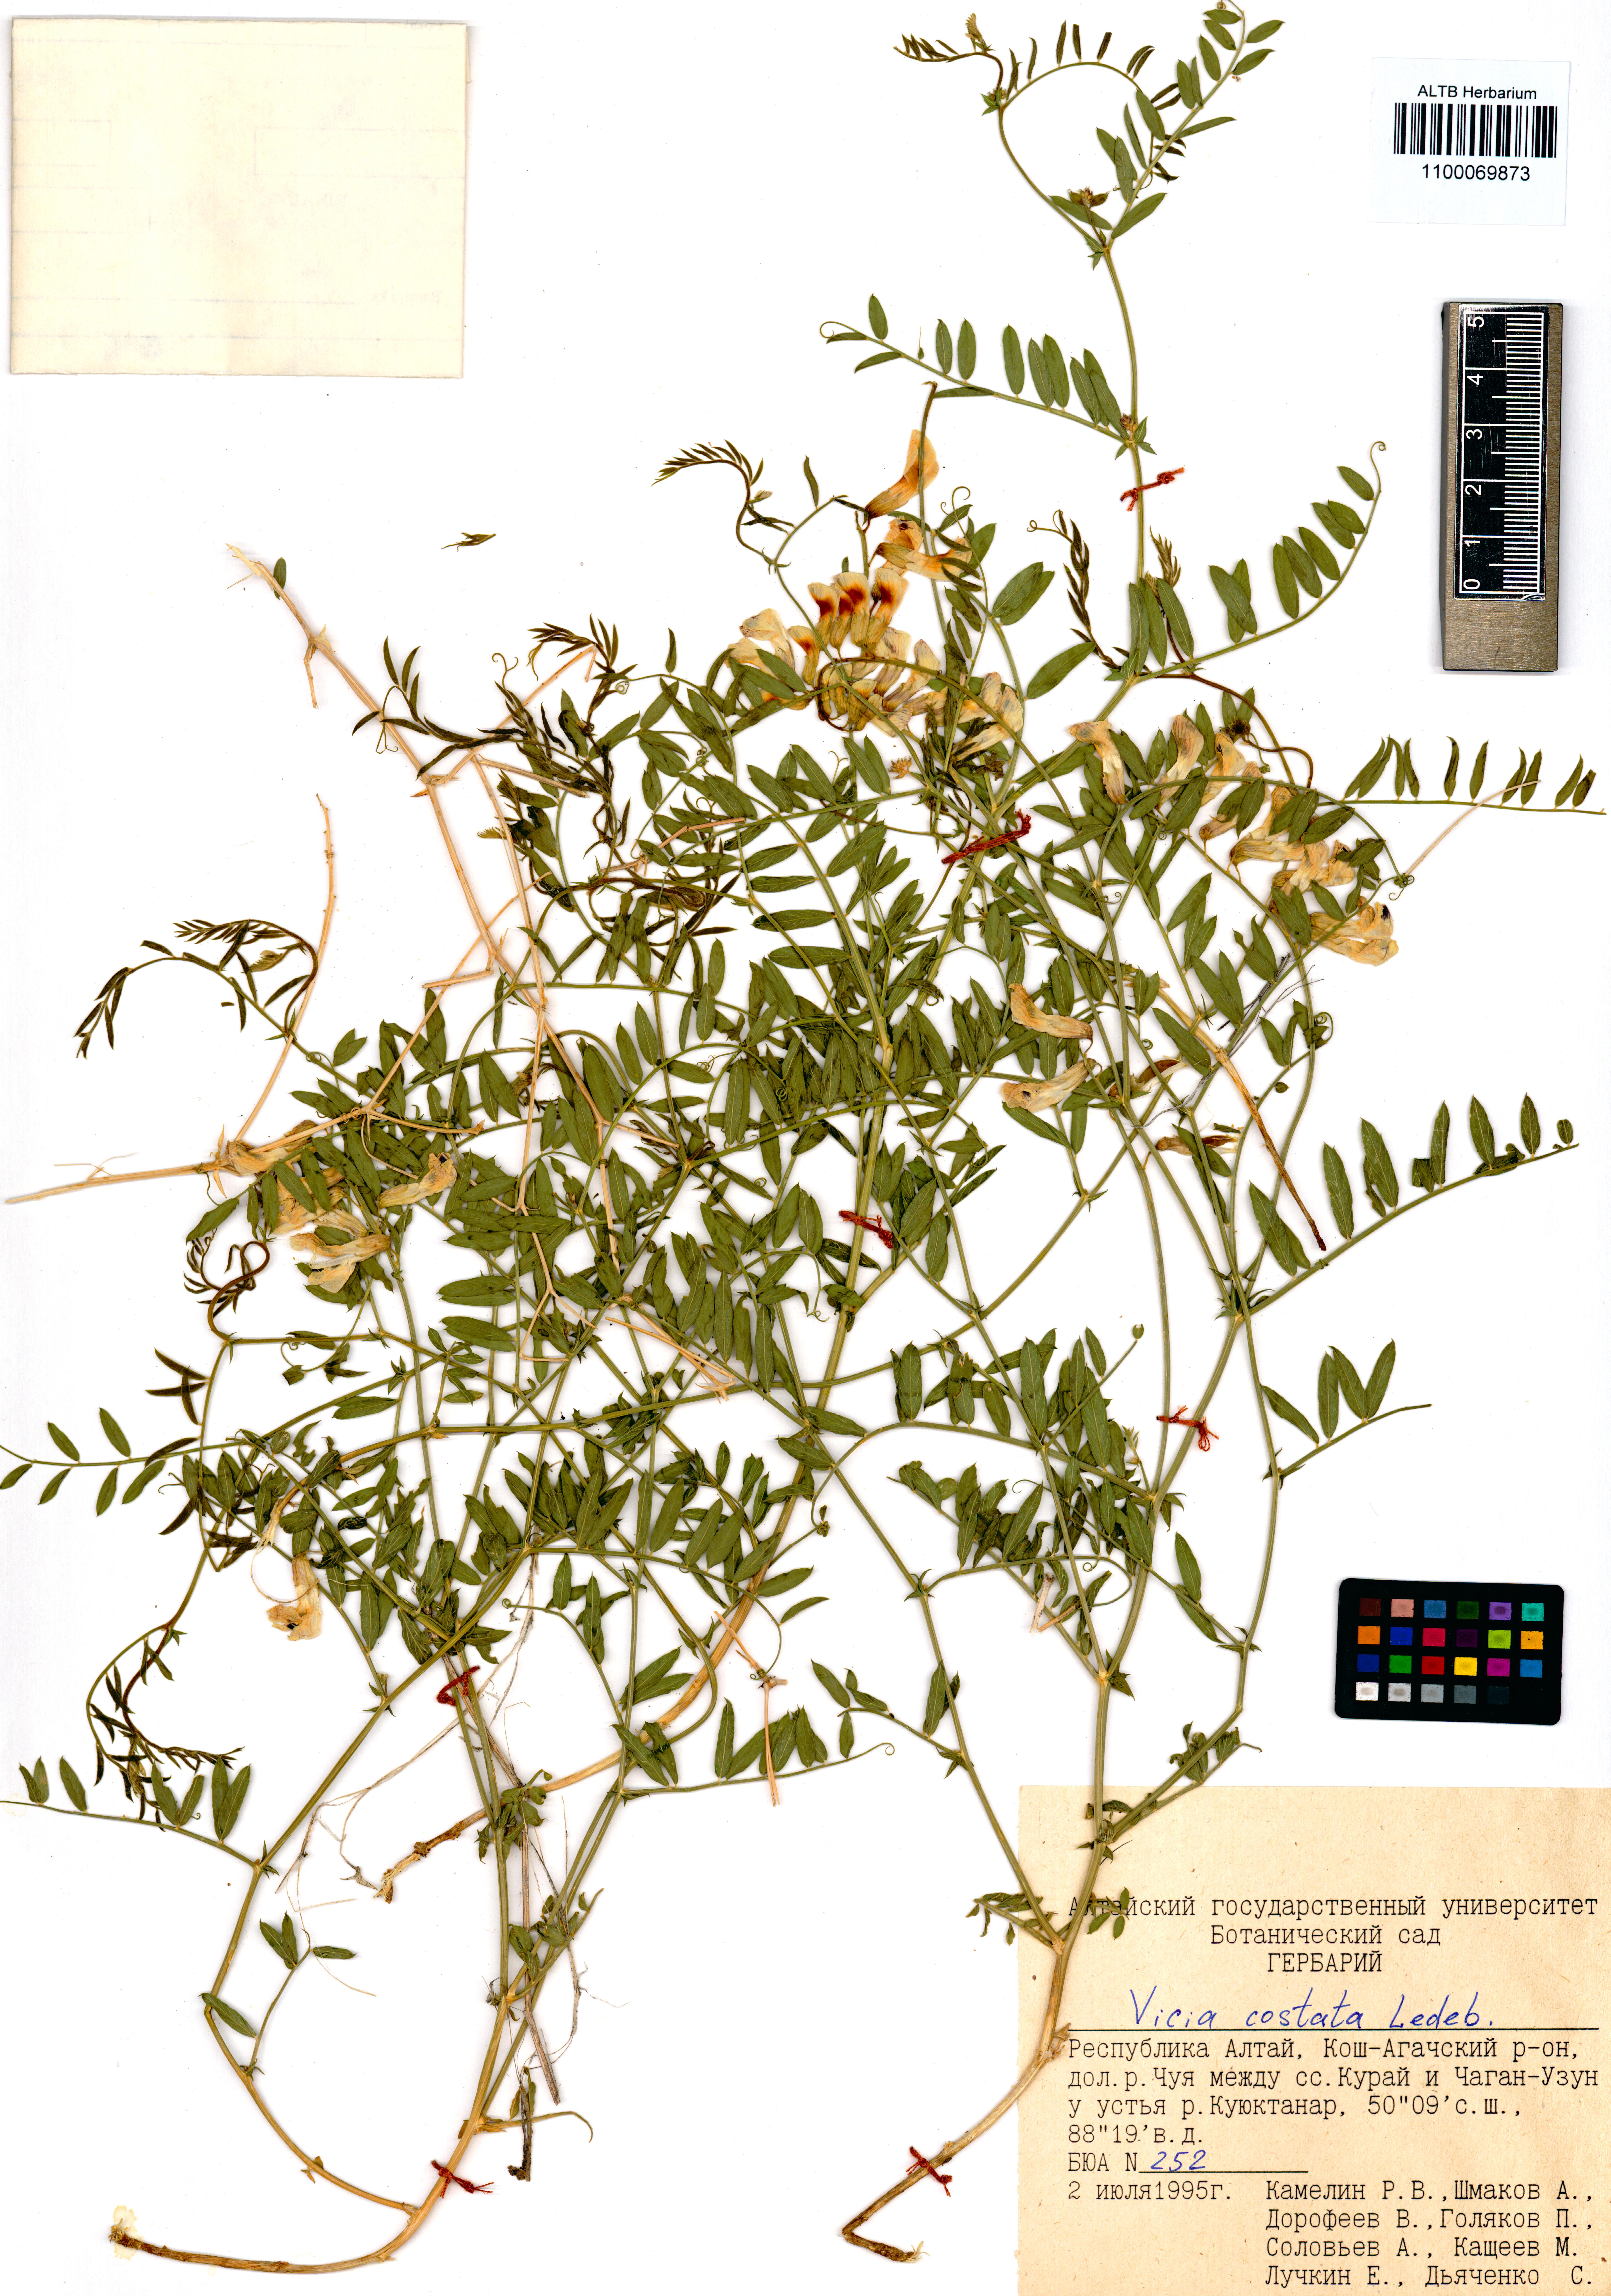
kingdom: Plantae
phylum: Tracheophyta
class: Magnoliopsida
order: Fabales
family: Fabaceae
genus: Vicia
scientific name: Vicia costata
